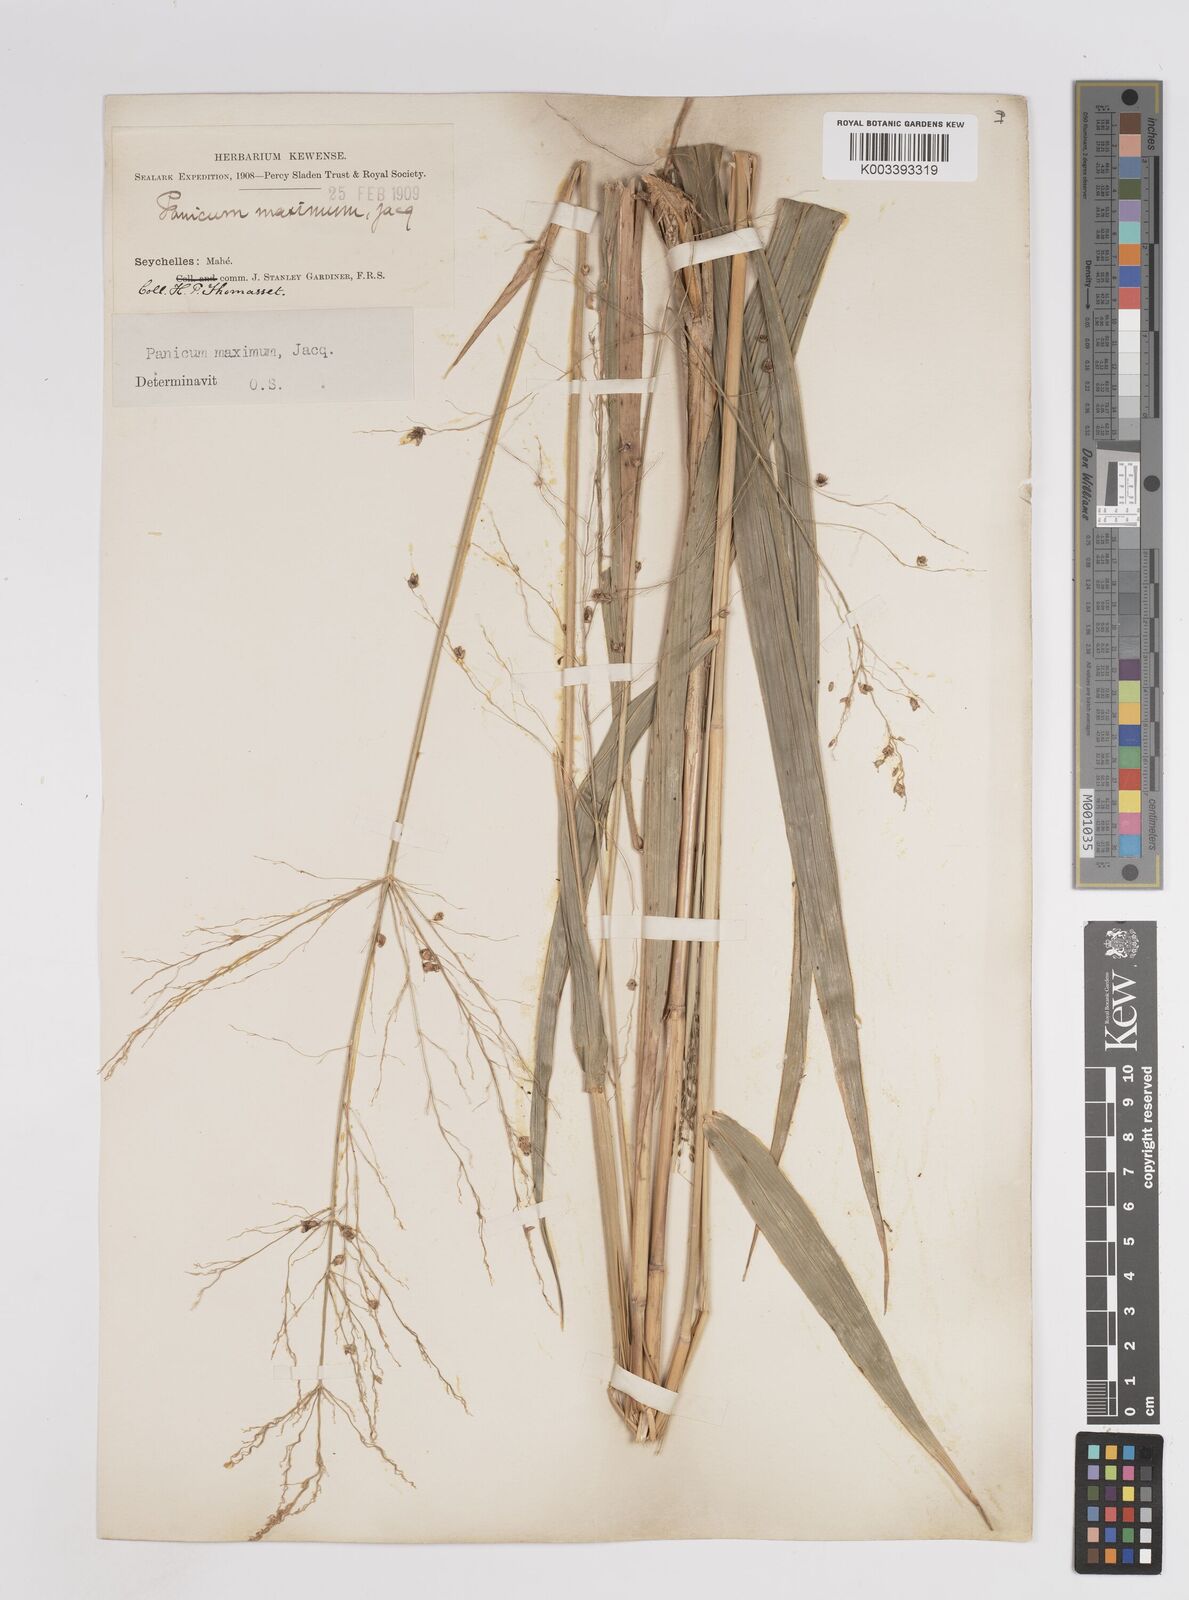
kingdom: Plantae
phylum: Tracheophyta
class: Liliopsida
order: Poales
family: Poaceae
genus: Megathyrsus
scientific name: Megathyrsus maximus
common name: Guineagrass
